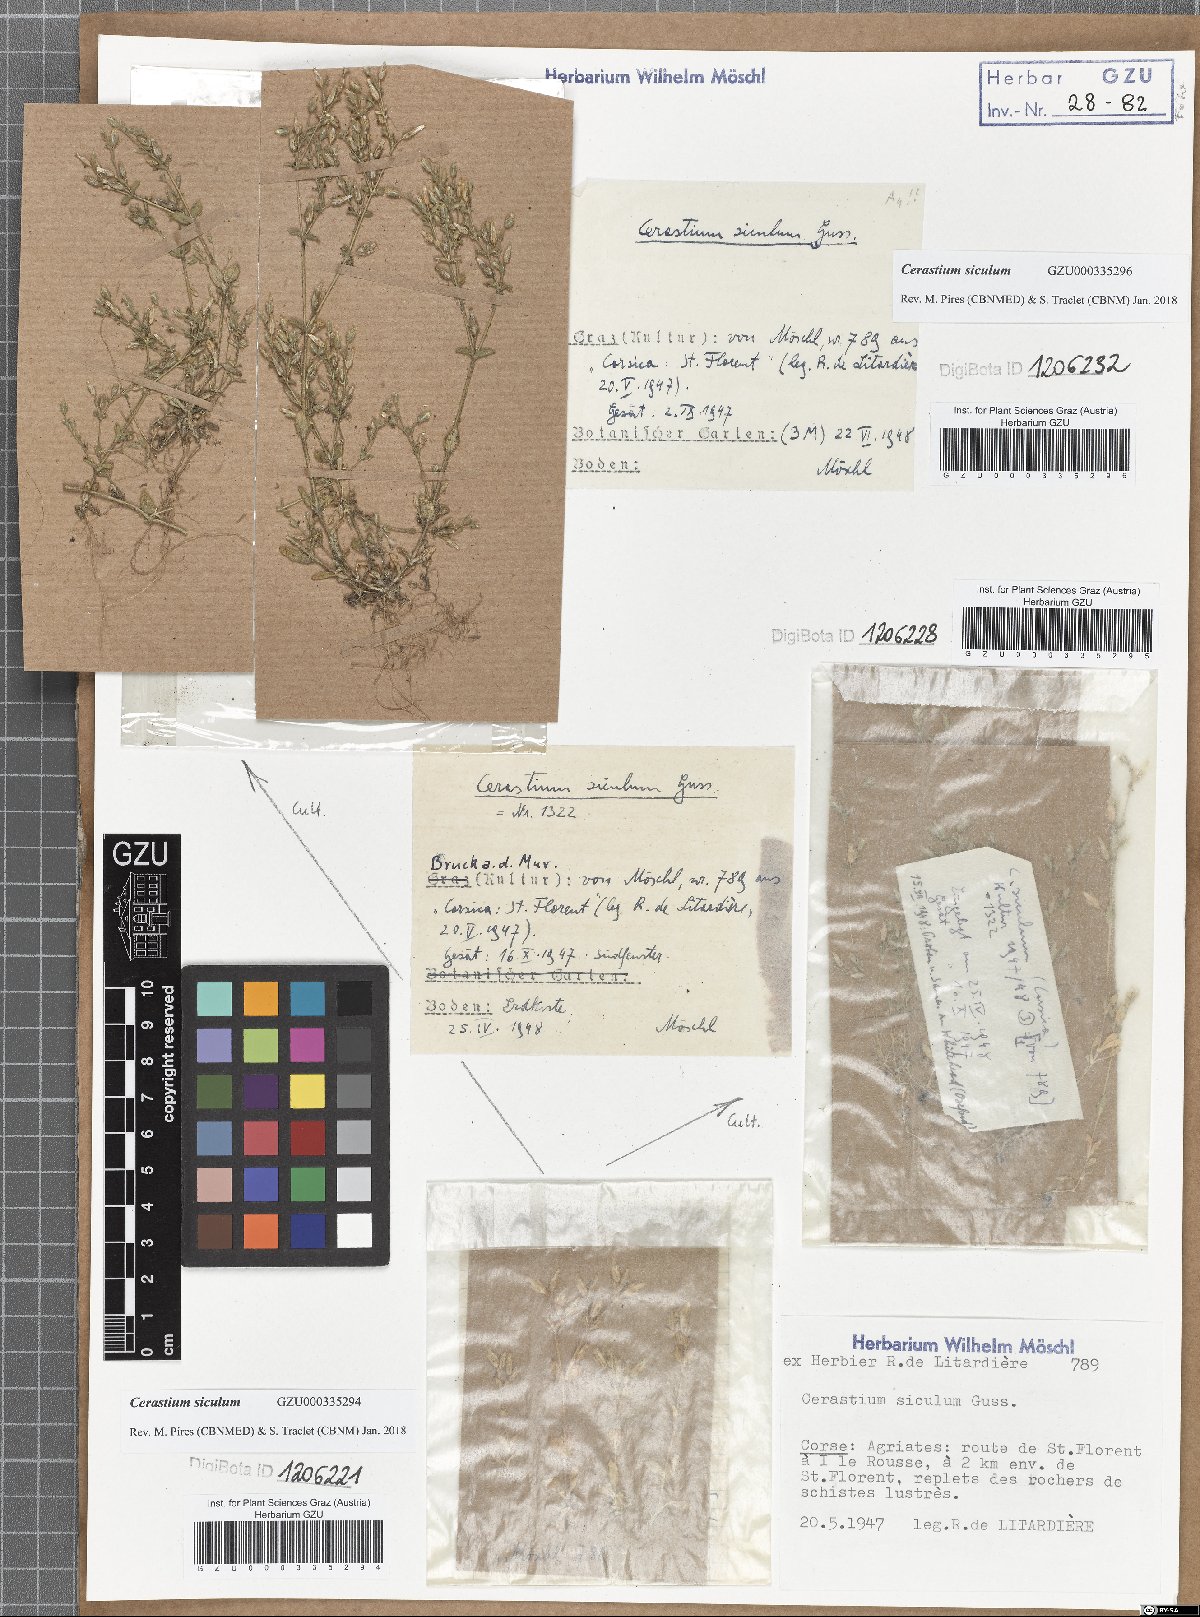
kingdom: Plantae
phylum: Tracheophyta
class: Magnoliopsida
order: Caryophyllales
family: Caryophyllaceae
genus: Cerastium
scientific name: Cerastium siculum
